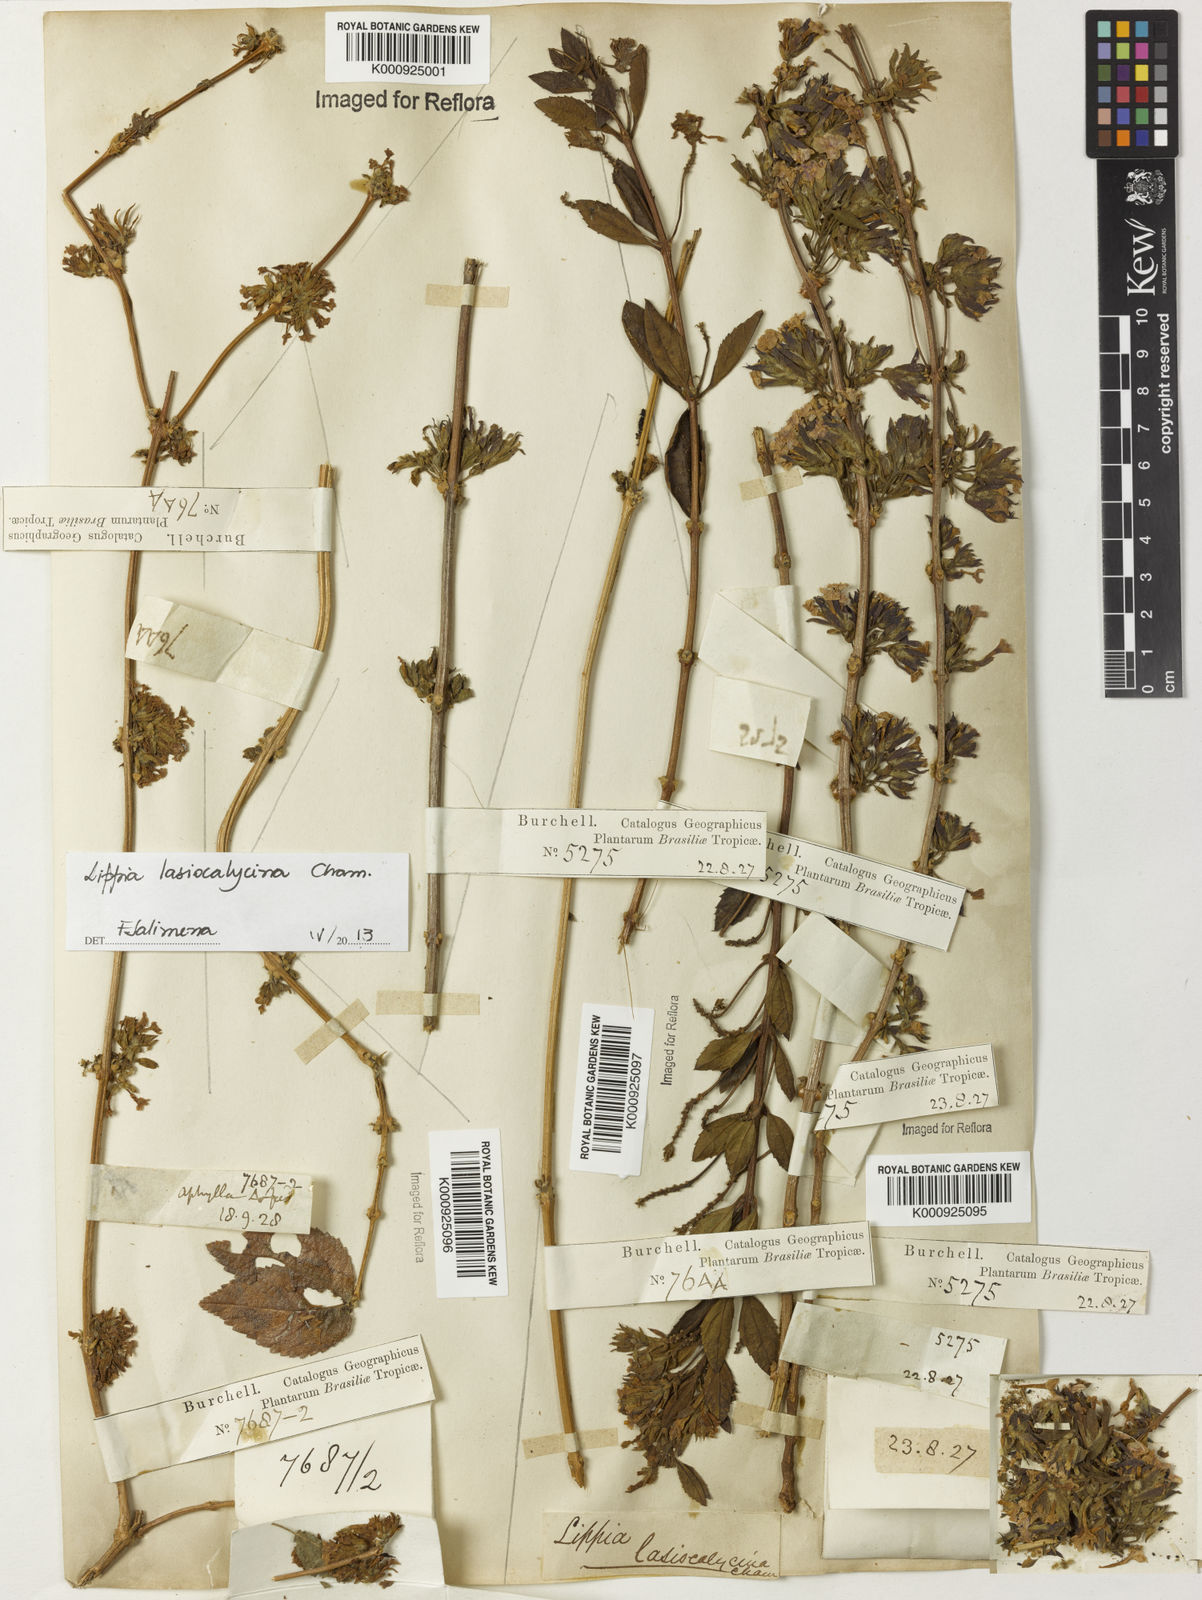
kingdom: Plantae
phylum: Tracheophyta
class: Magnoliopsida
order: Lamiales
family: Verbenaceae
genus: Lippia
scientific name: Lippia lasiocalycina
